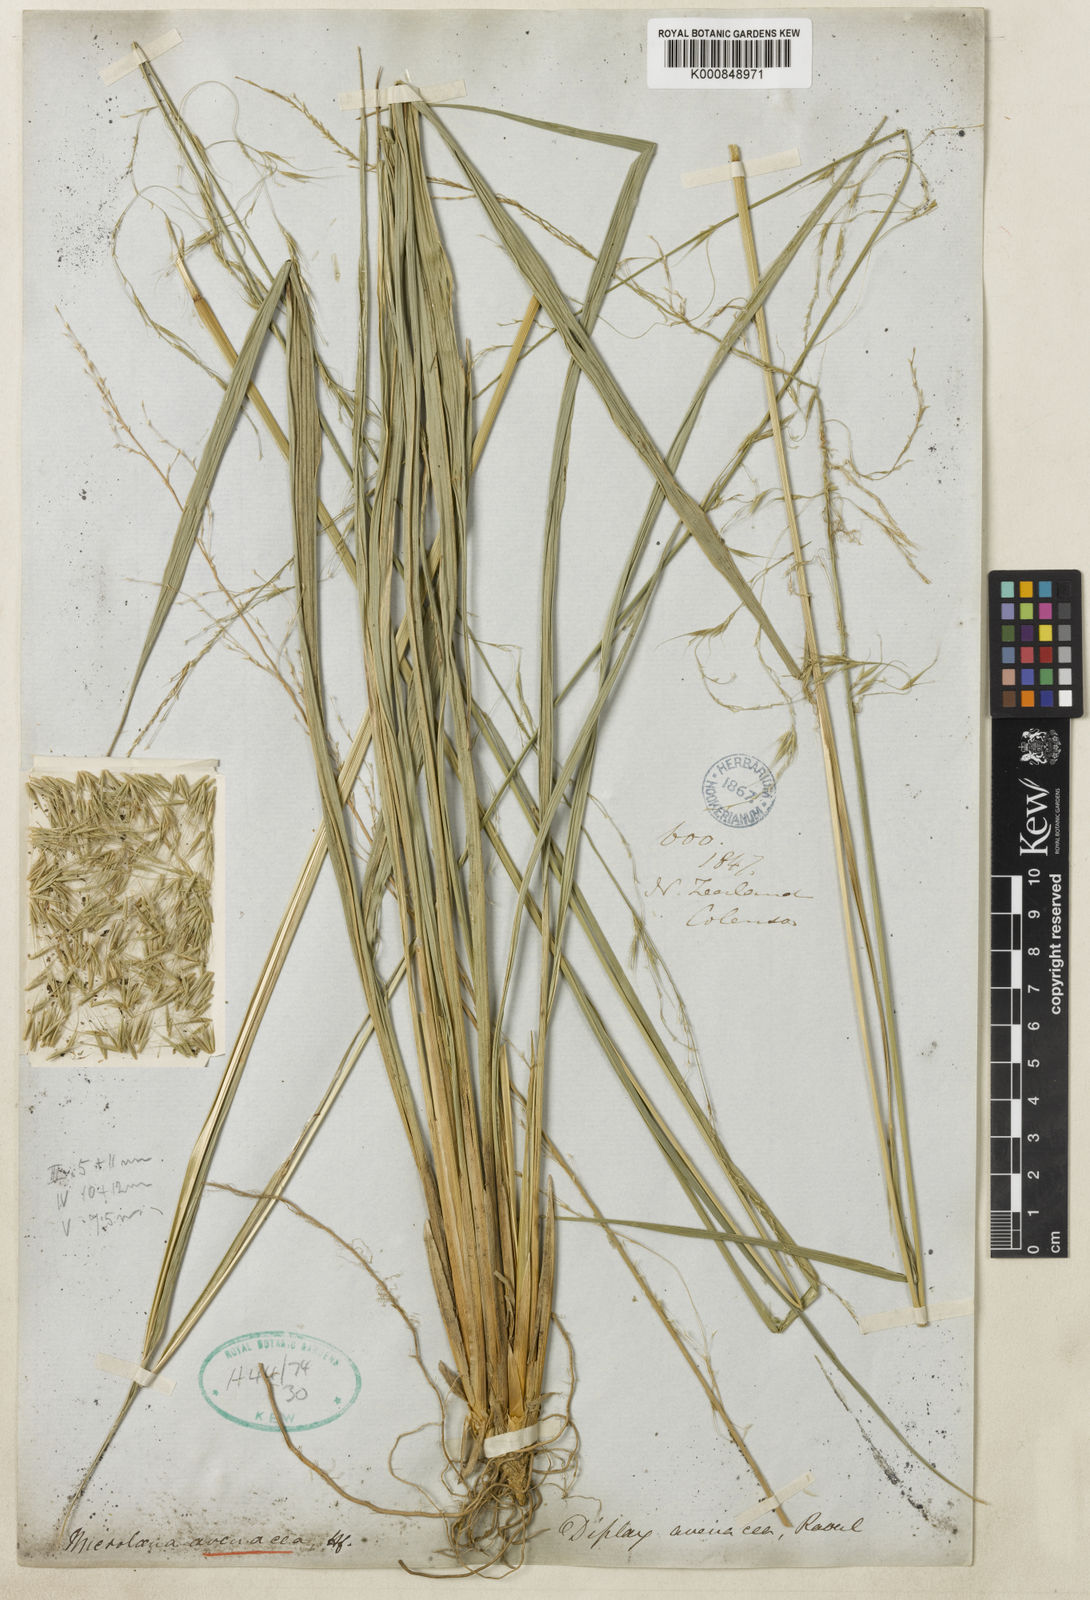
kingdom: Plantae
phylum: Tracheophyta
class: Liliopsida
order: Poales
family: Poaceae
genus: Ehrharta
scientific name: Ehrharta diplax
